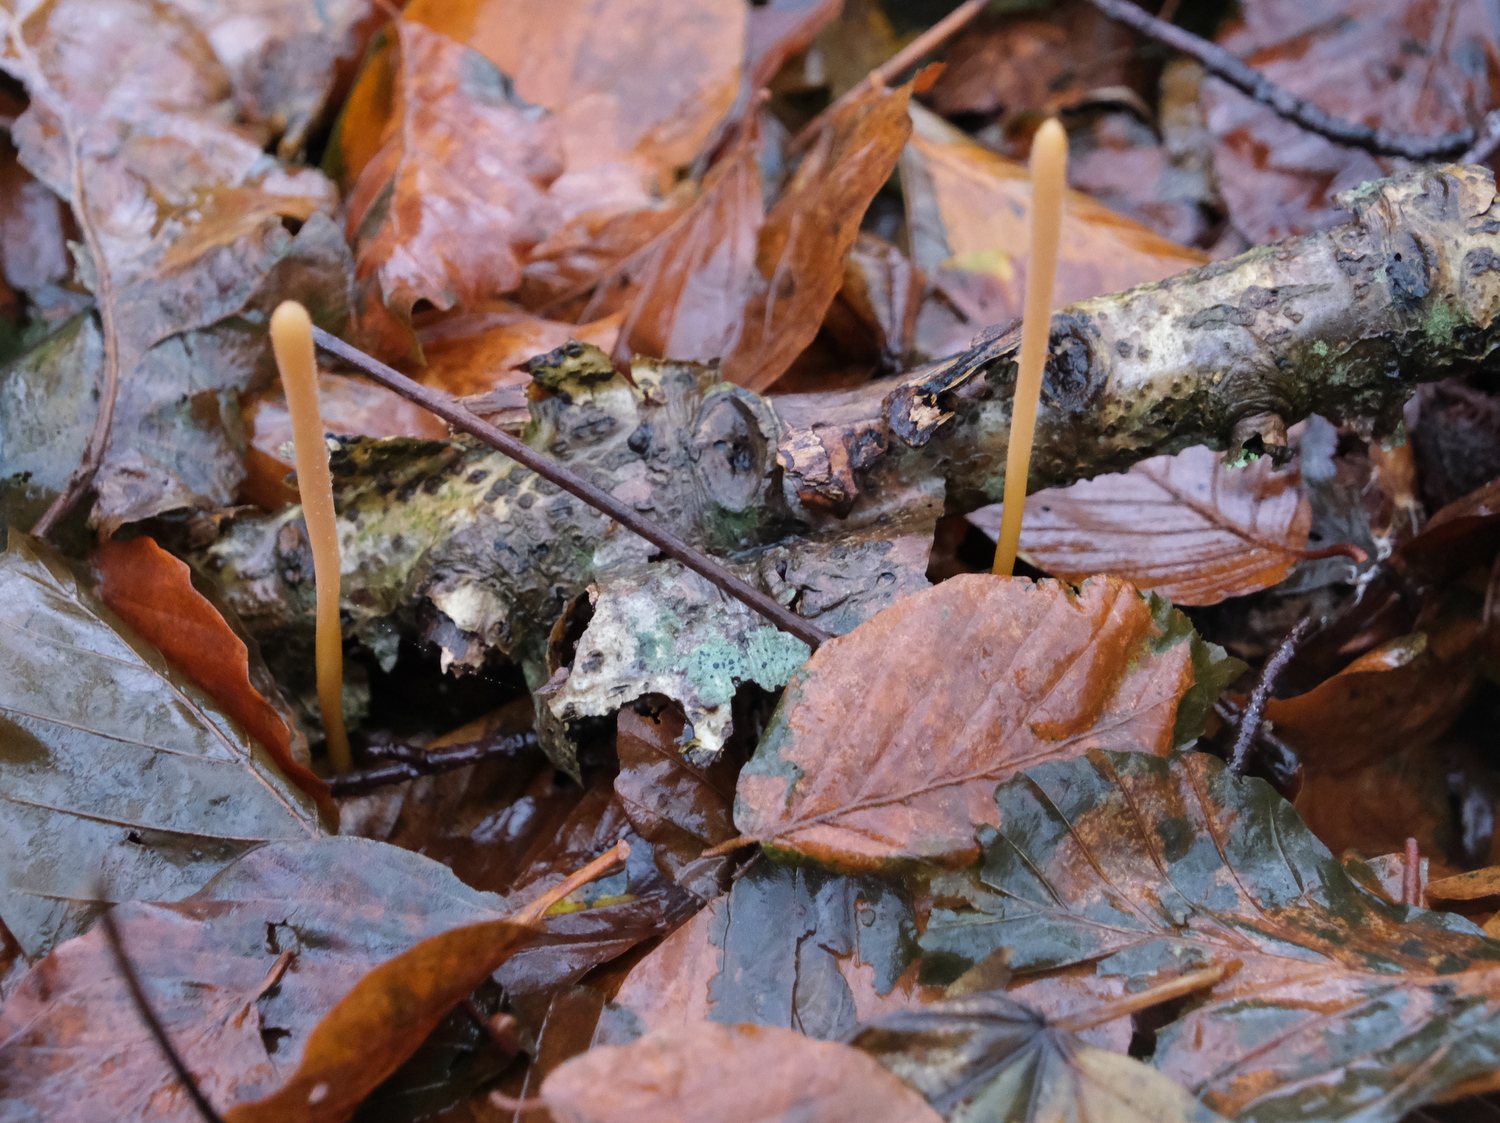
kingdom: Fungi
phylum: Basidiomycota
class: Agaricomycetes
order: Agaricales
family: Typhulaceae
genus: Typhula
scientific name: Typhula fistulosa
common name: pibet rørkølle
